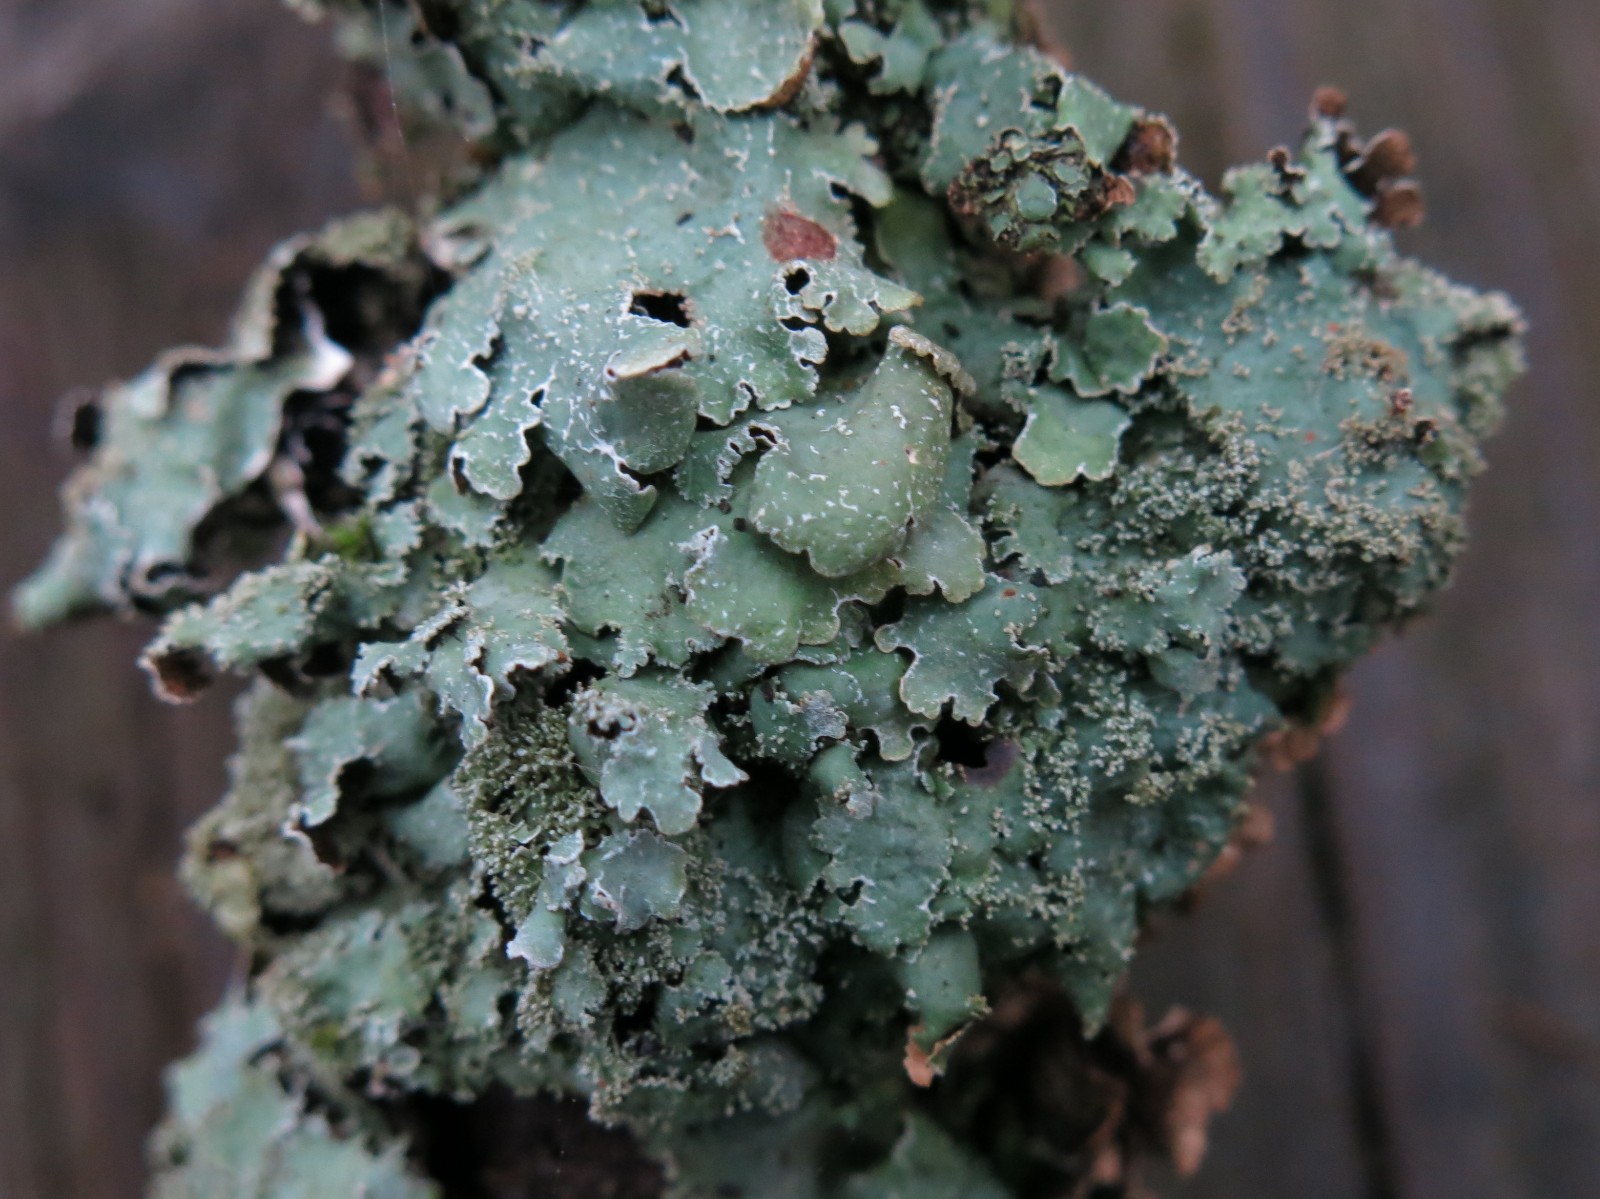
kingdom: Fungi
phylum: Ascomycota
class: Lecanoromycetes
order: Lecanorales
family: Parmeliaceae
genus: Parmelia
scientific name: Parmelia ernstiae
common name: rimstift-skållav
